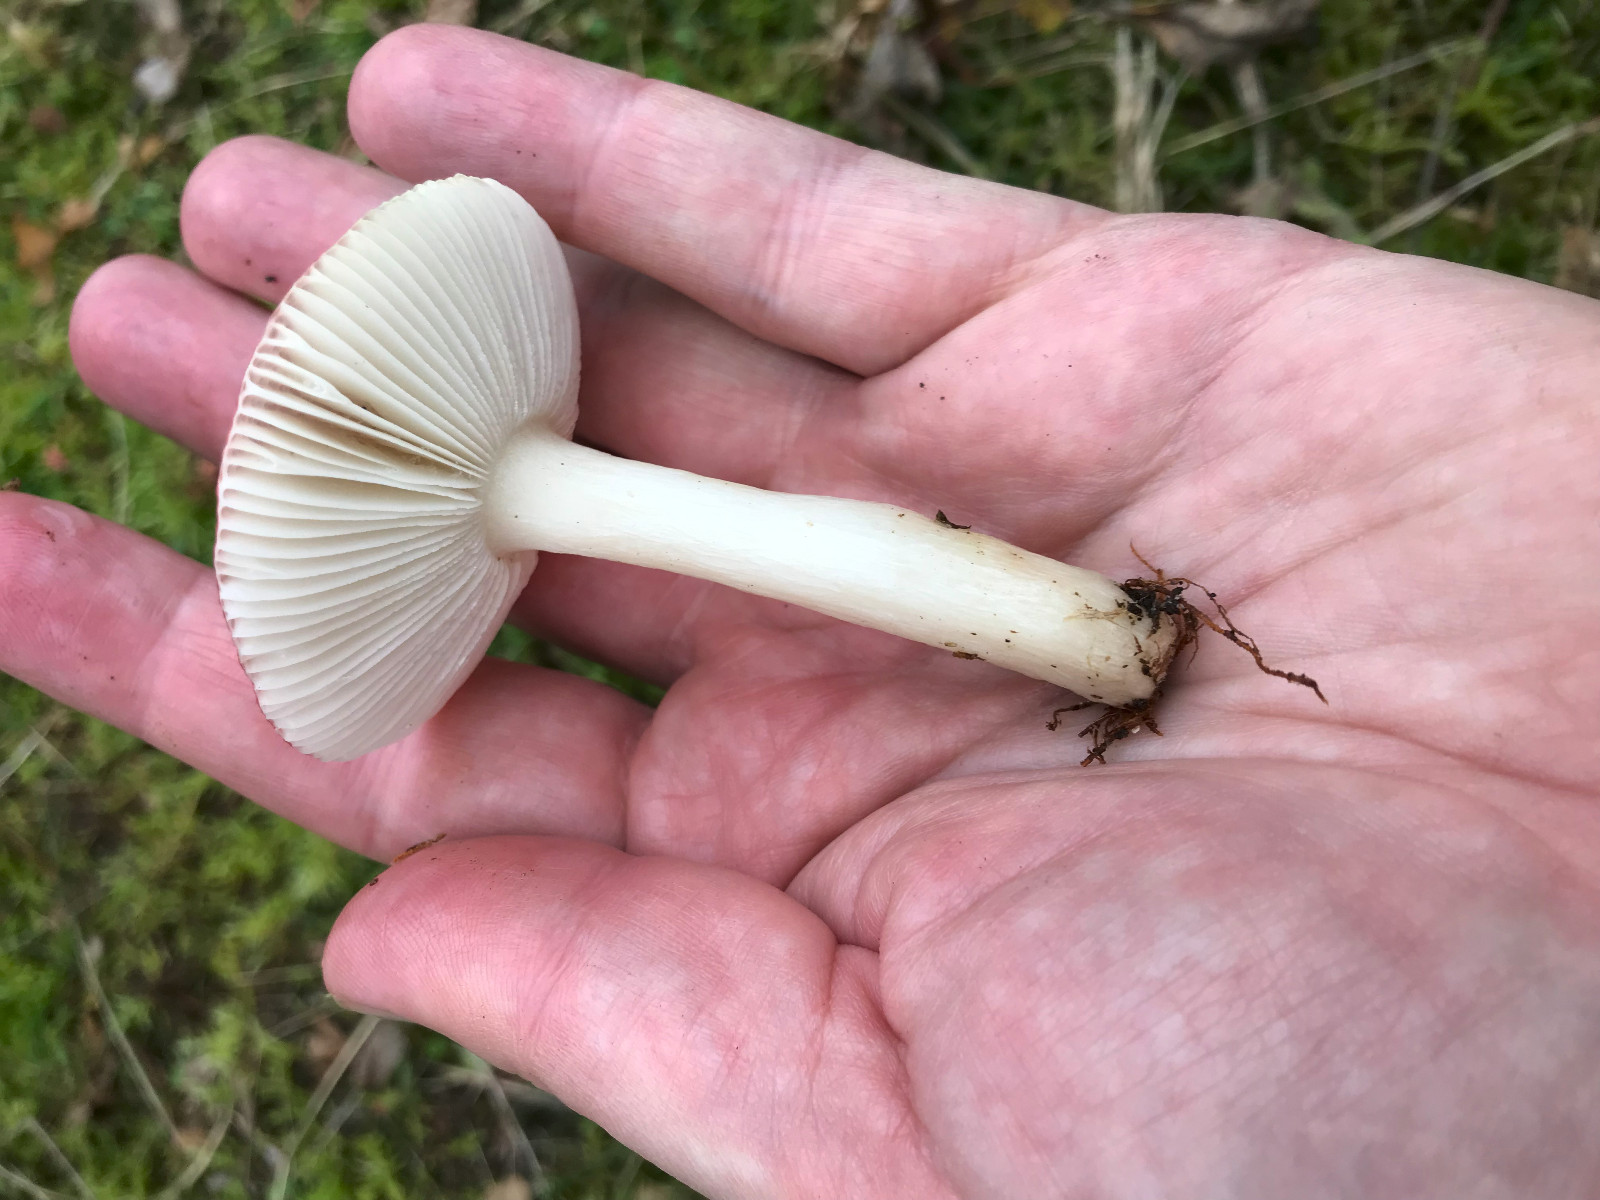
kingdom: Fungi
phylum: Basidiomycota
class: Agaricomycetes
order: Russulales
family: Russulaceae
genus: Russula
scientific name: Russula
